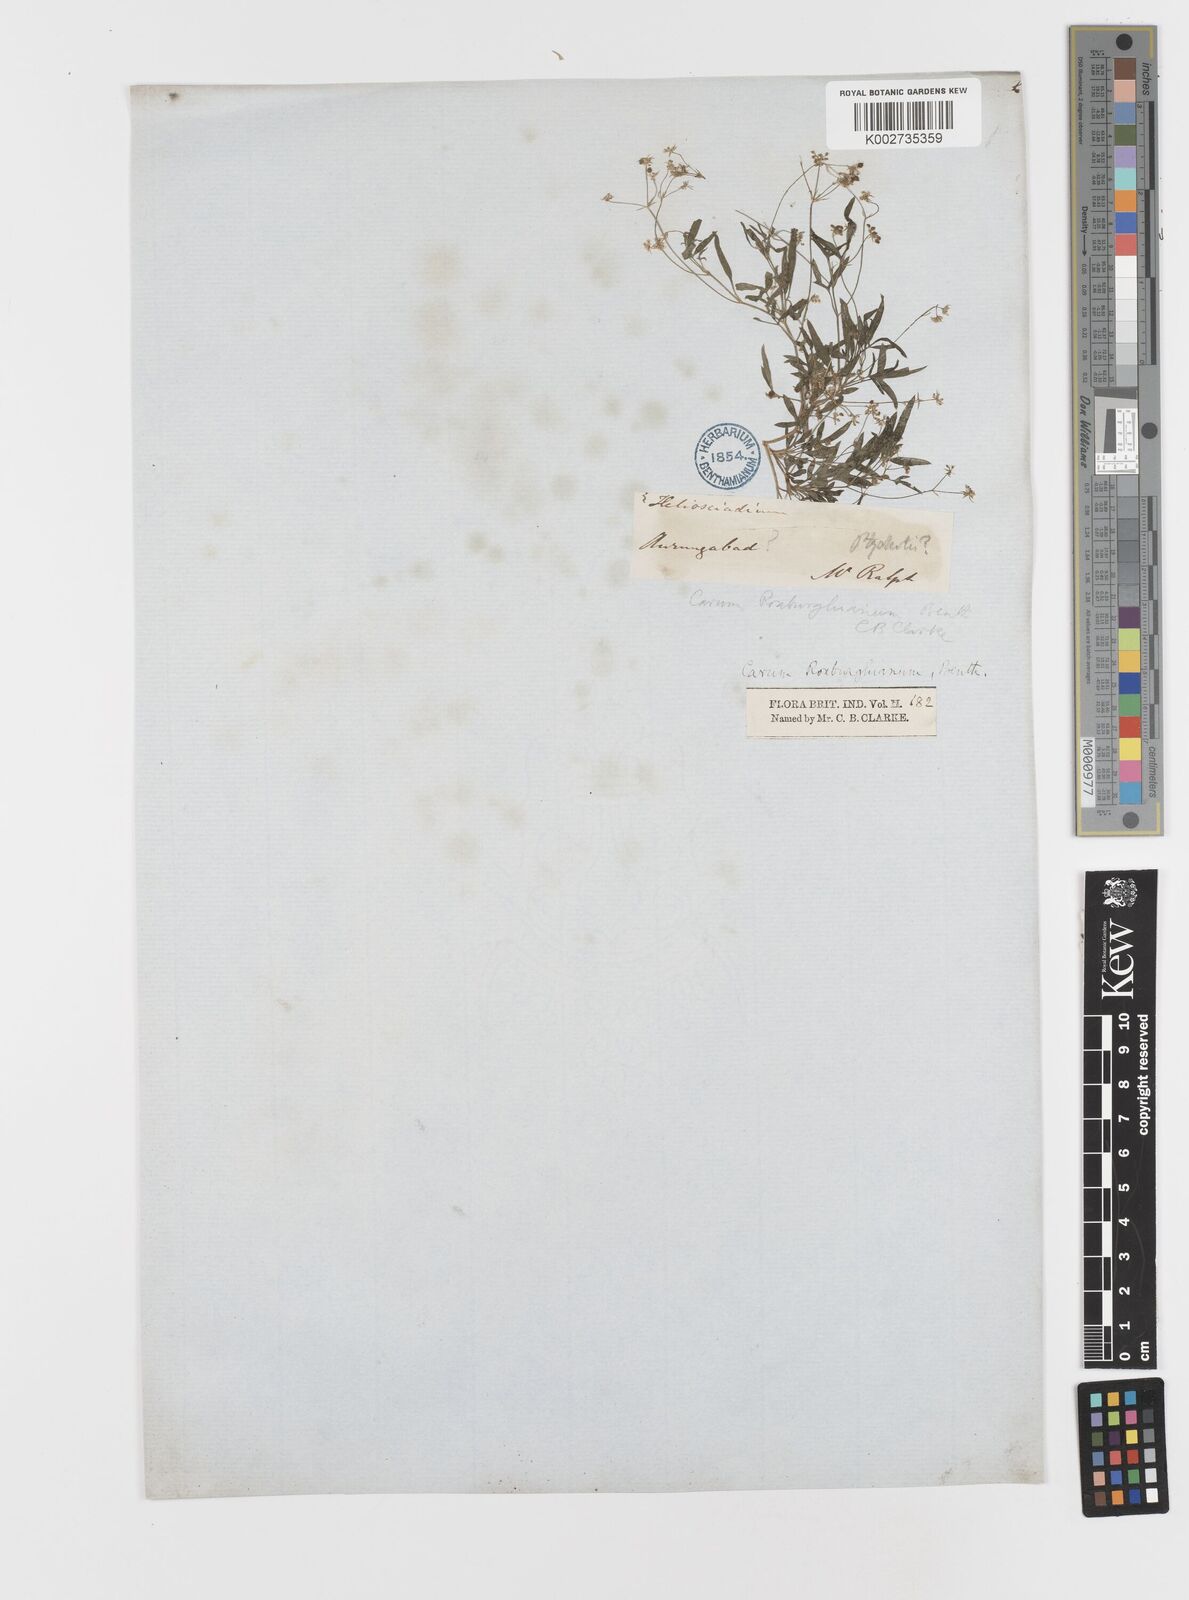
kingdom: Plantae
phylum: Tracheophyta
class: Magnoliopsida
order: Apiales
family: Apiaceae
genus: Psammogeton
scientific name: Psammogeton involucratum
